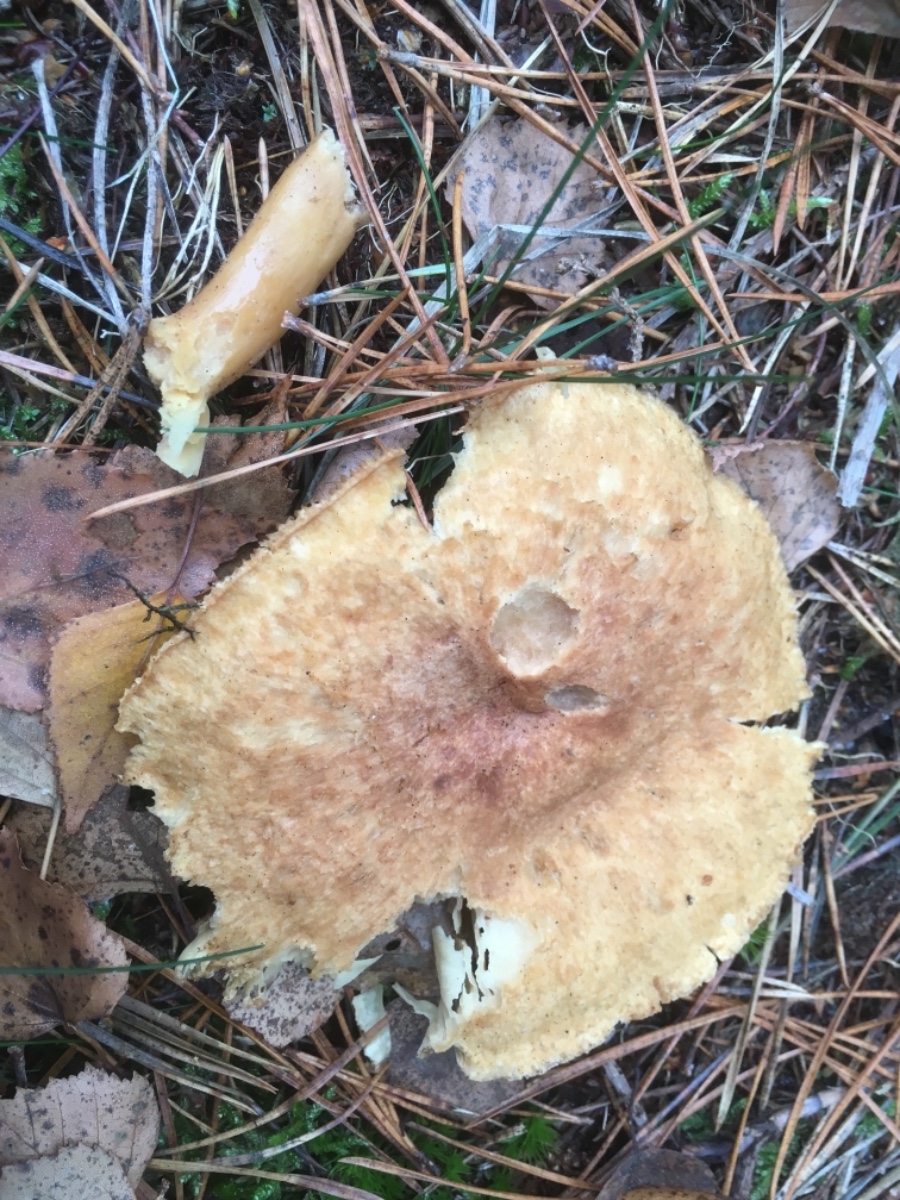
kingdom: Fungi
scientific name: Fungi
